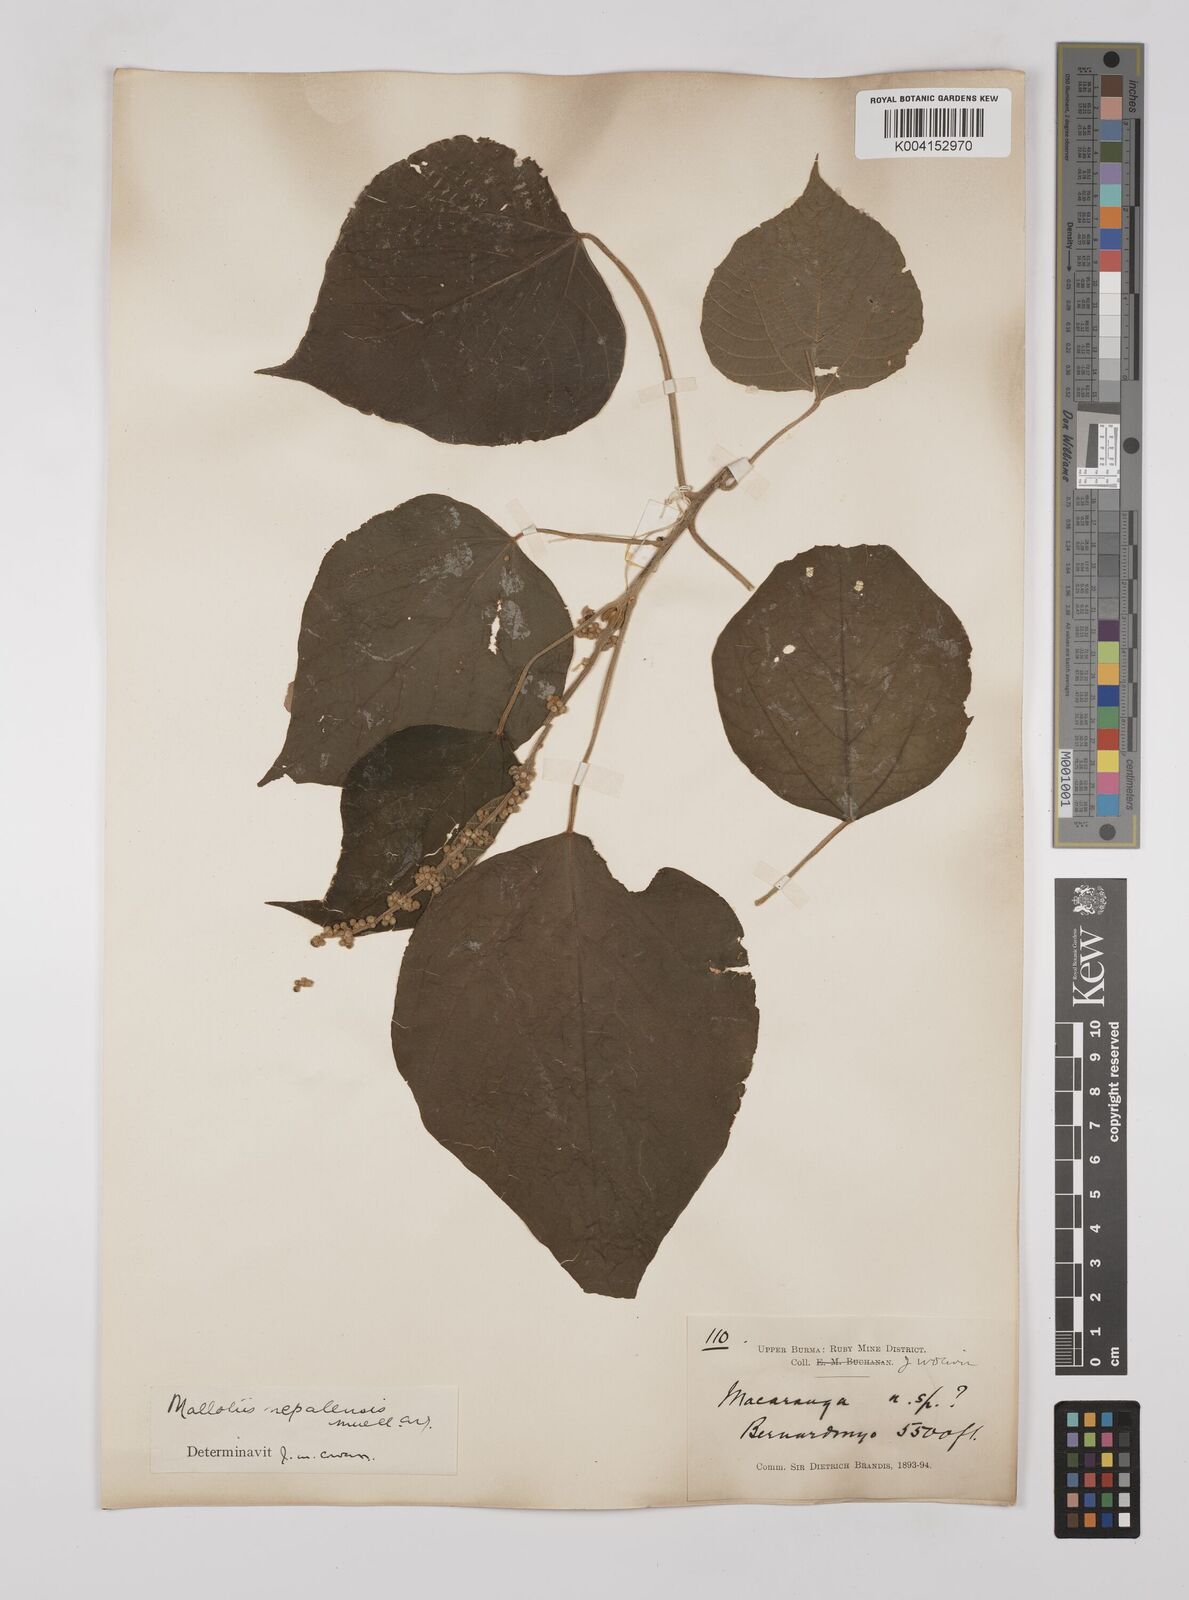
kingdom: Plantae
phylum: Tracheophyta
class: Magnoliopsida
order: Malpighiales
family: Euphorbiaceae
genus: Mallotus
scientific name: Mallotus nepalensis
